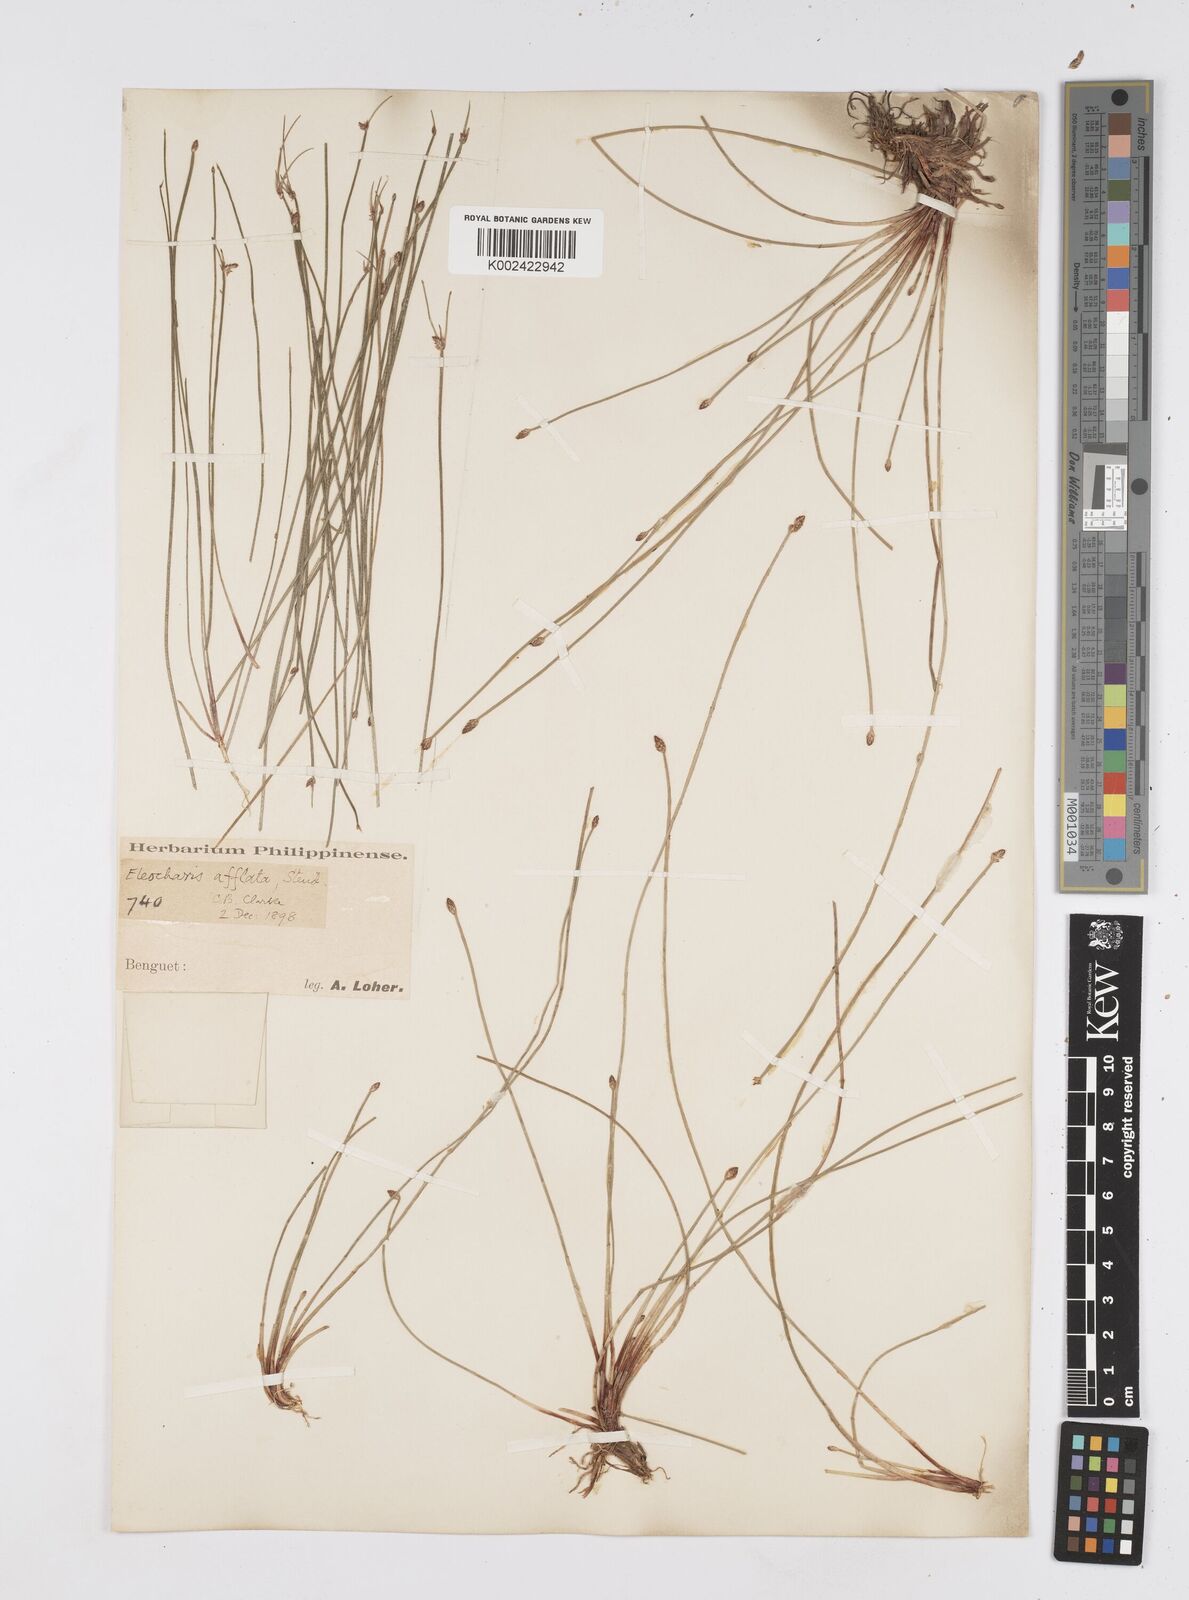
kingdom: Plantae
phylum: Tracheophyta
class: Liliopsida
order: Poales
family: Cyperaceae
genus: Eleocharis
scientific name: Eleocharis congesta
